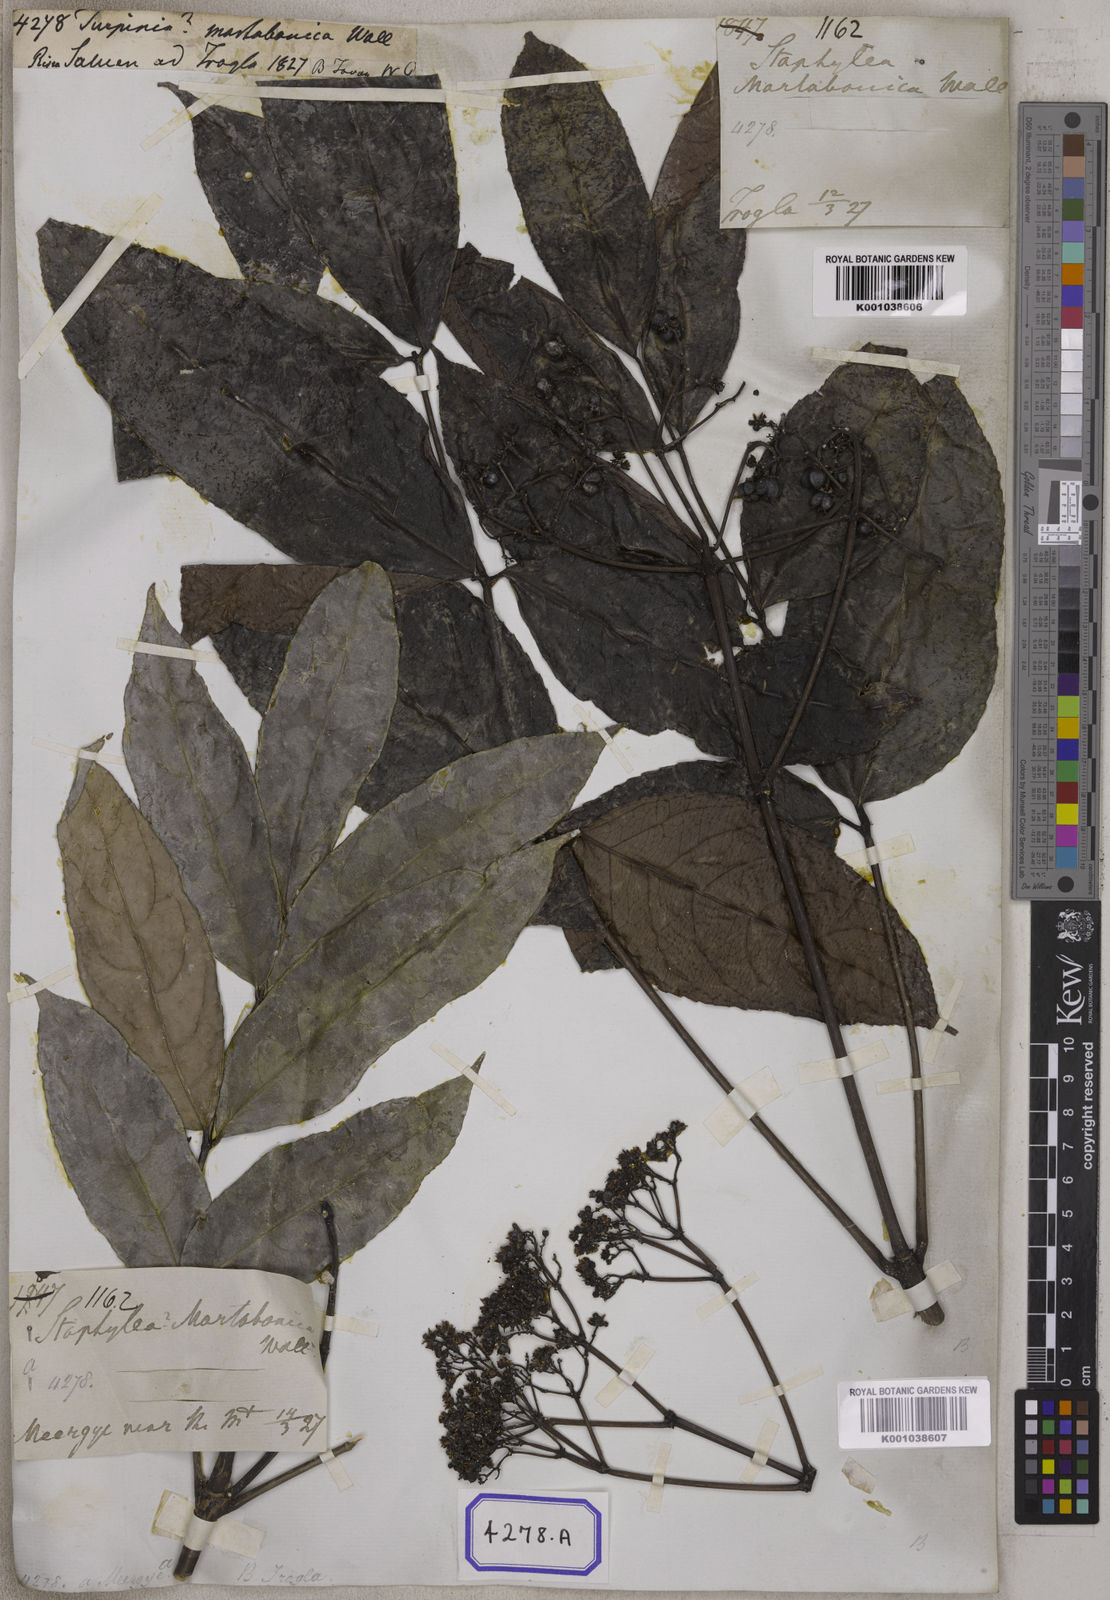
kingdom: Plantae
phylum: Tracheophyta
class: Magnoliopsida
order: Crossosomatales
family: Staphyleaceae
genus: Dalrympelea
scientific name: Dalrympelea pomifera
